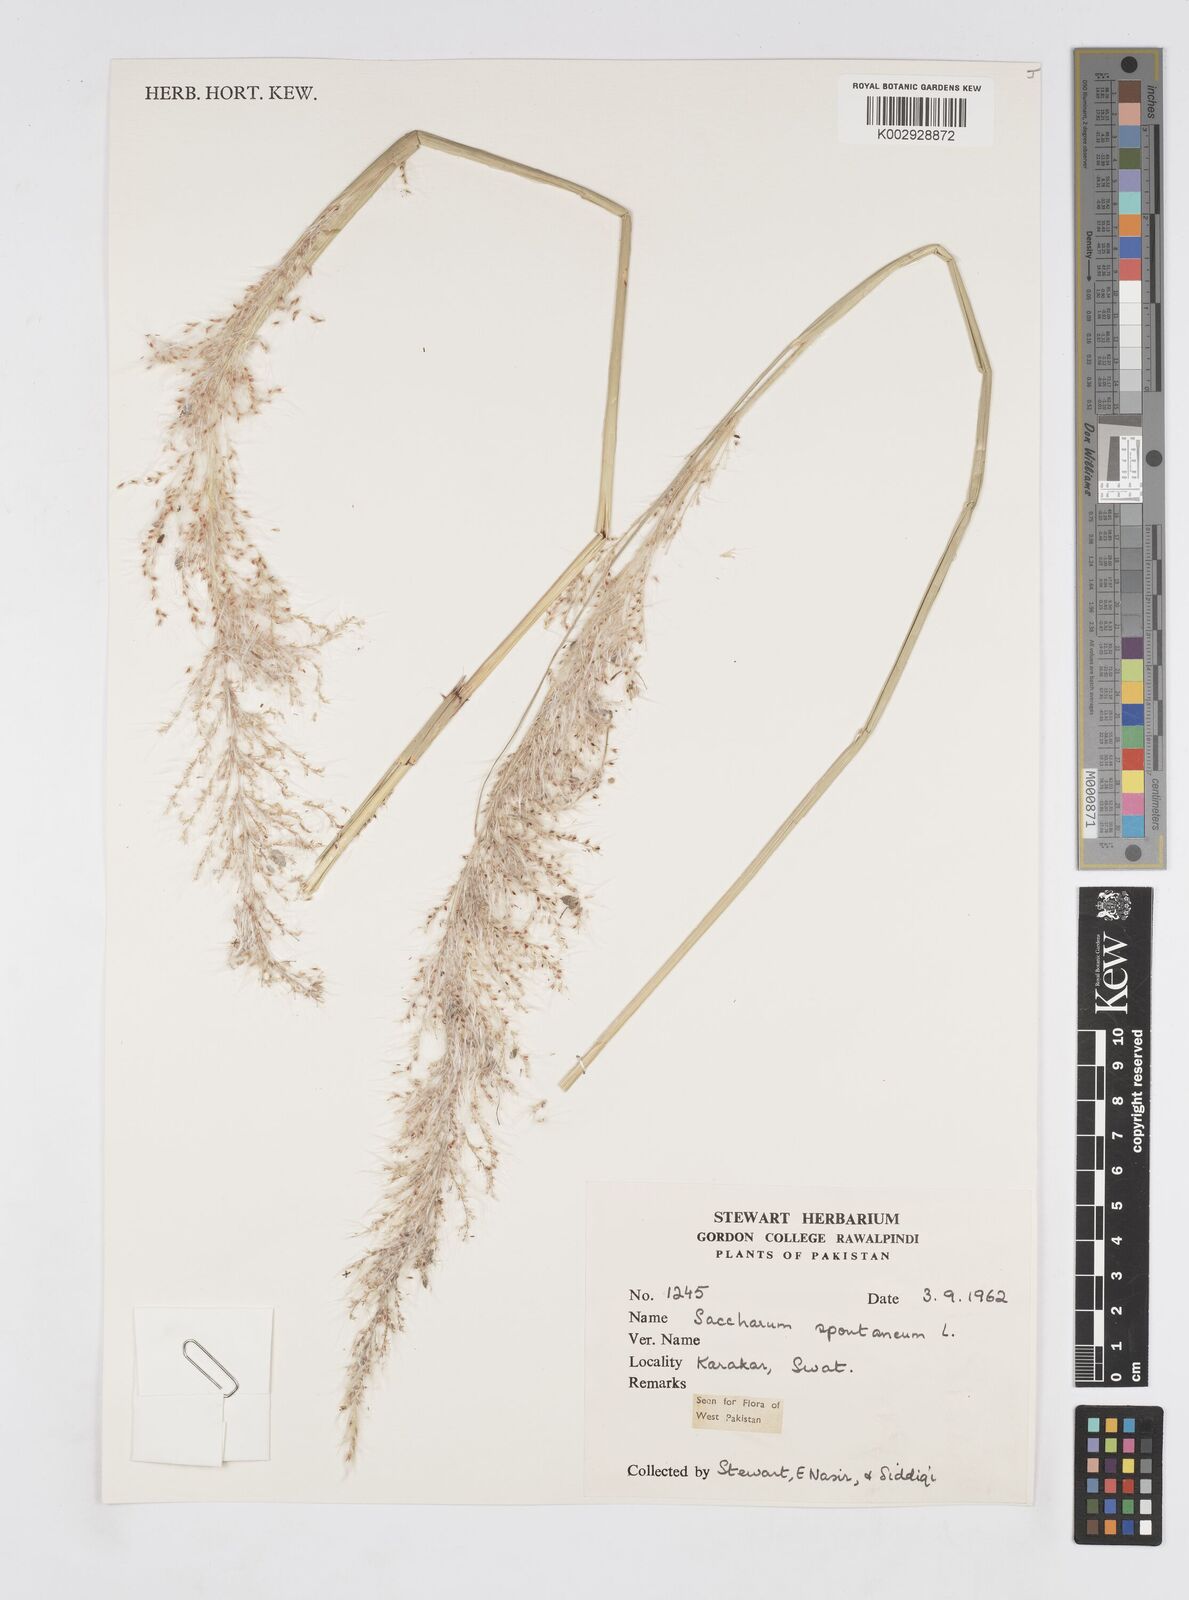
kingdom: Plantae
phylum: Tracheophyta
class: Liliopsida
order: Poales
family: Poaceae
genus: Saccharum
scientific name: Saccharum spontaneum
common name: Wild sugarcane
